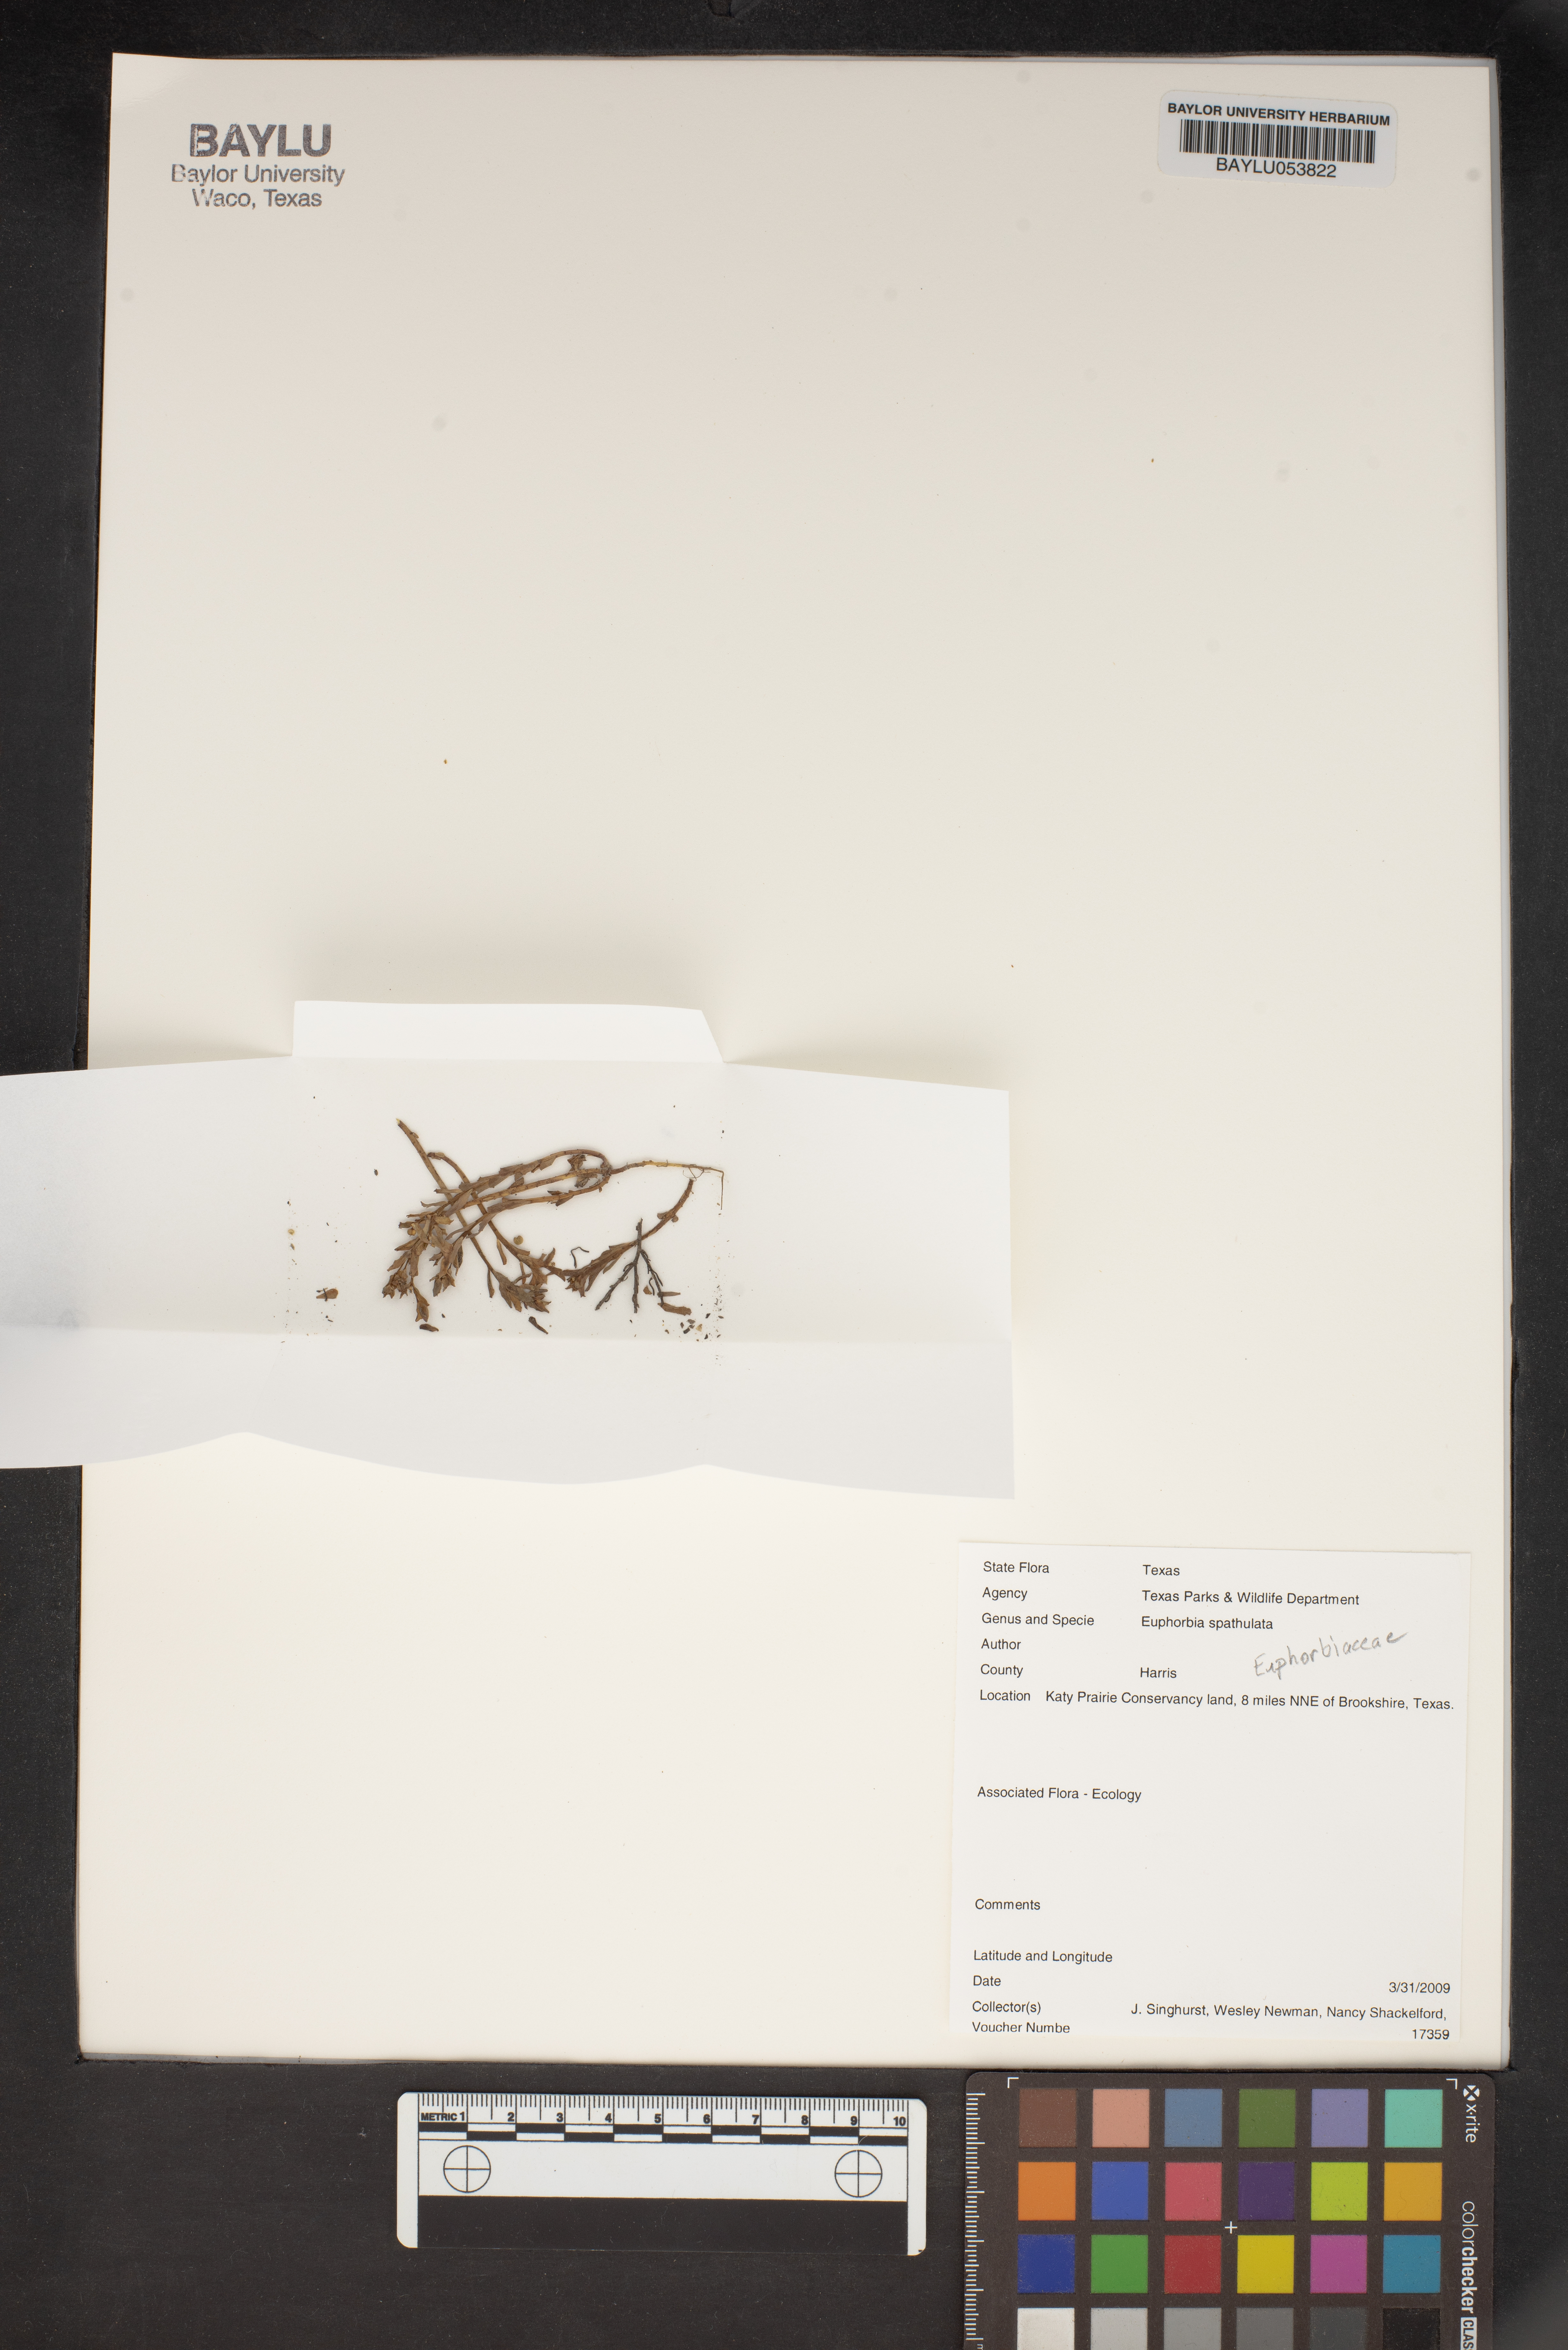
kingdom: Plantae
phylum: Tracheophyta
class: Magnoliopsida
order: Malpighiales
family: Euphorbiaceae
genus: Euphorbia
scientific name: Euphorbia spathulata
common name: Blunt spurge
